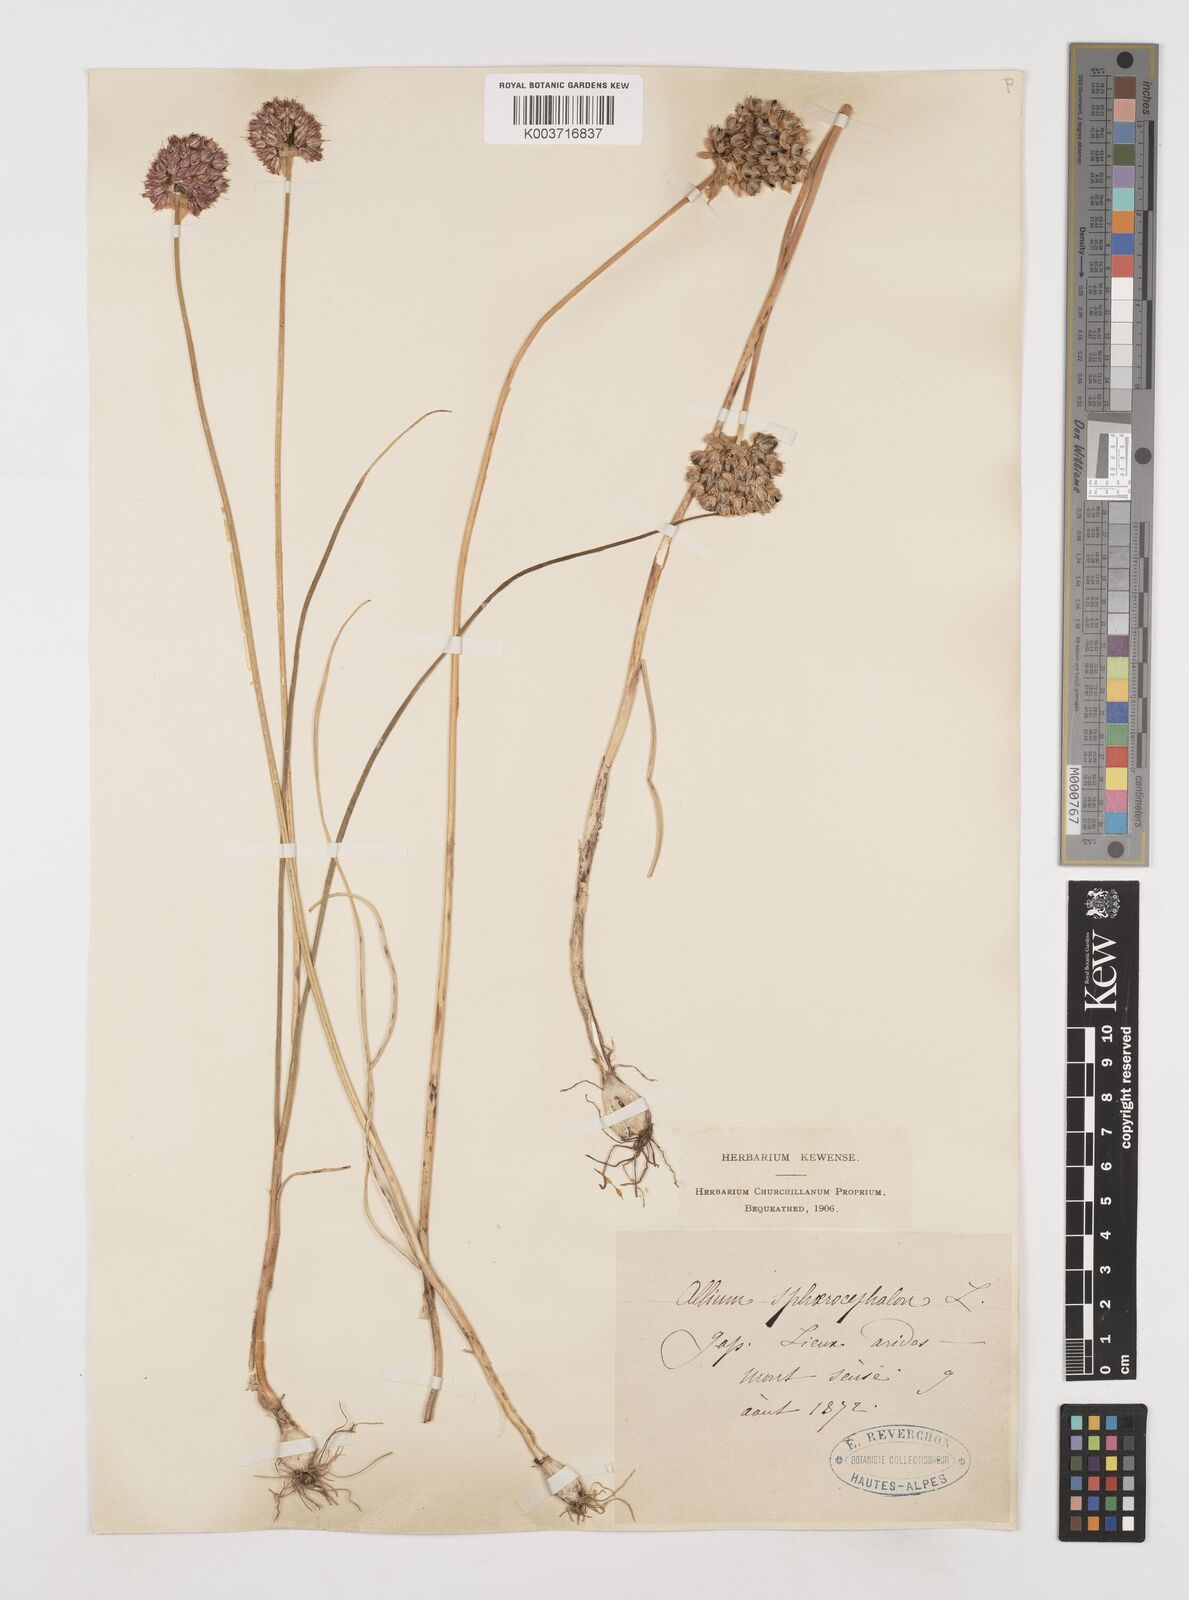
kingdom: Plantae
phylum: Tracheophyta
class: Liliopsida
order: Asparagales
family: Amaryllidaceae
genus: Allium
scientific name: Allium sphaerocephalon
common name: Round-headed leek
